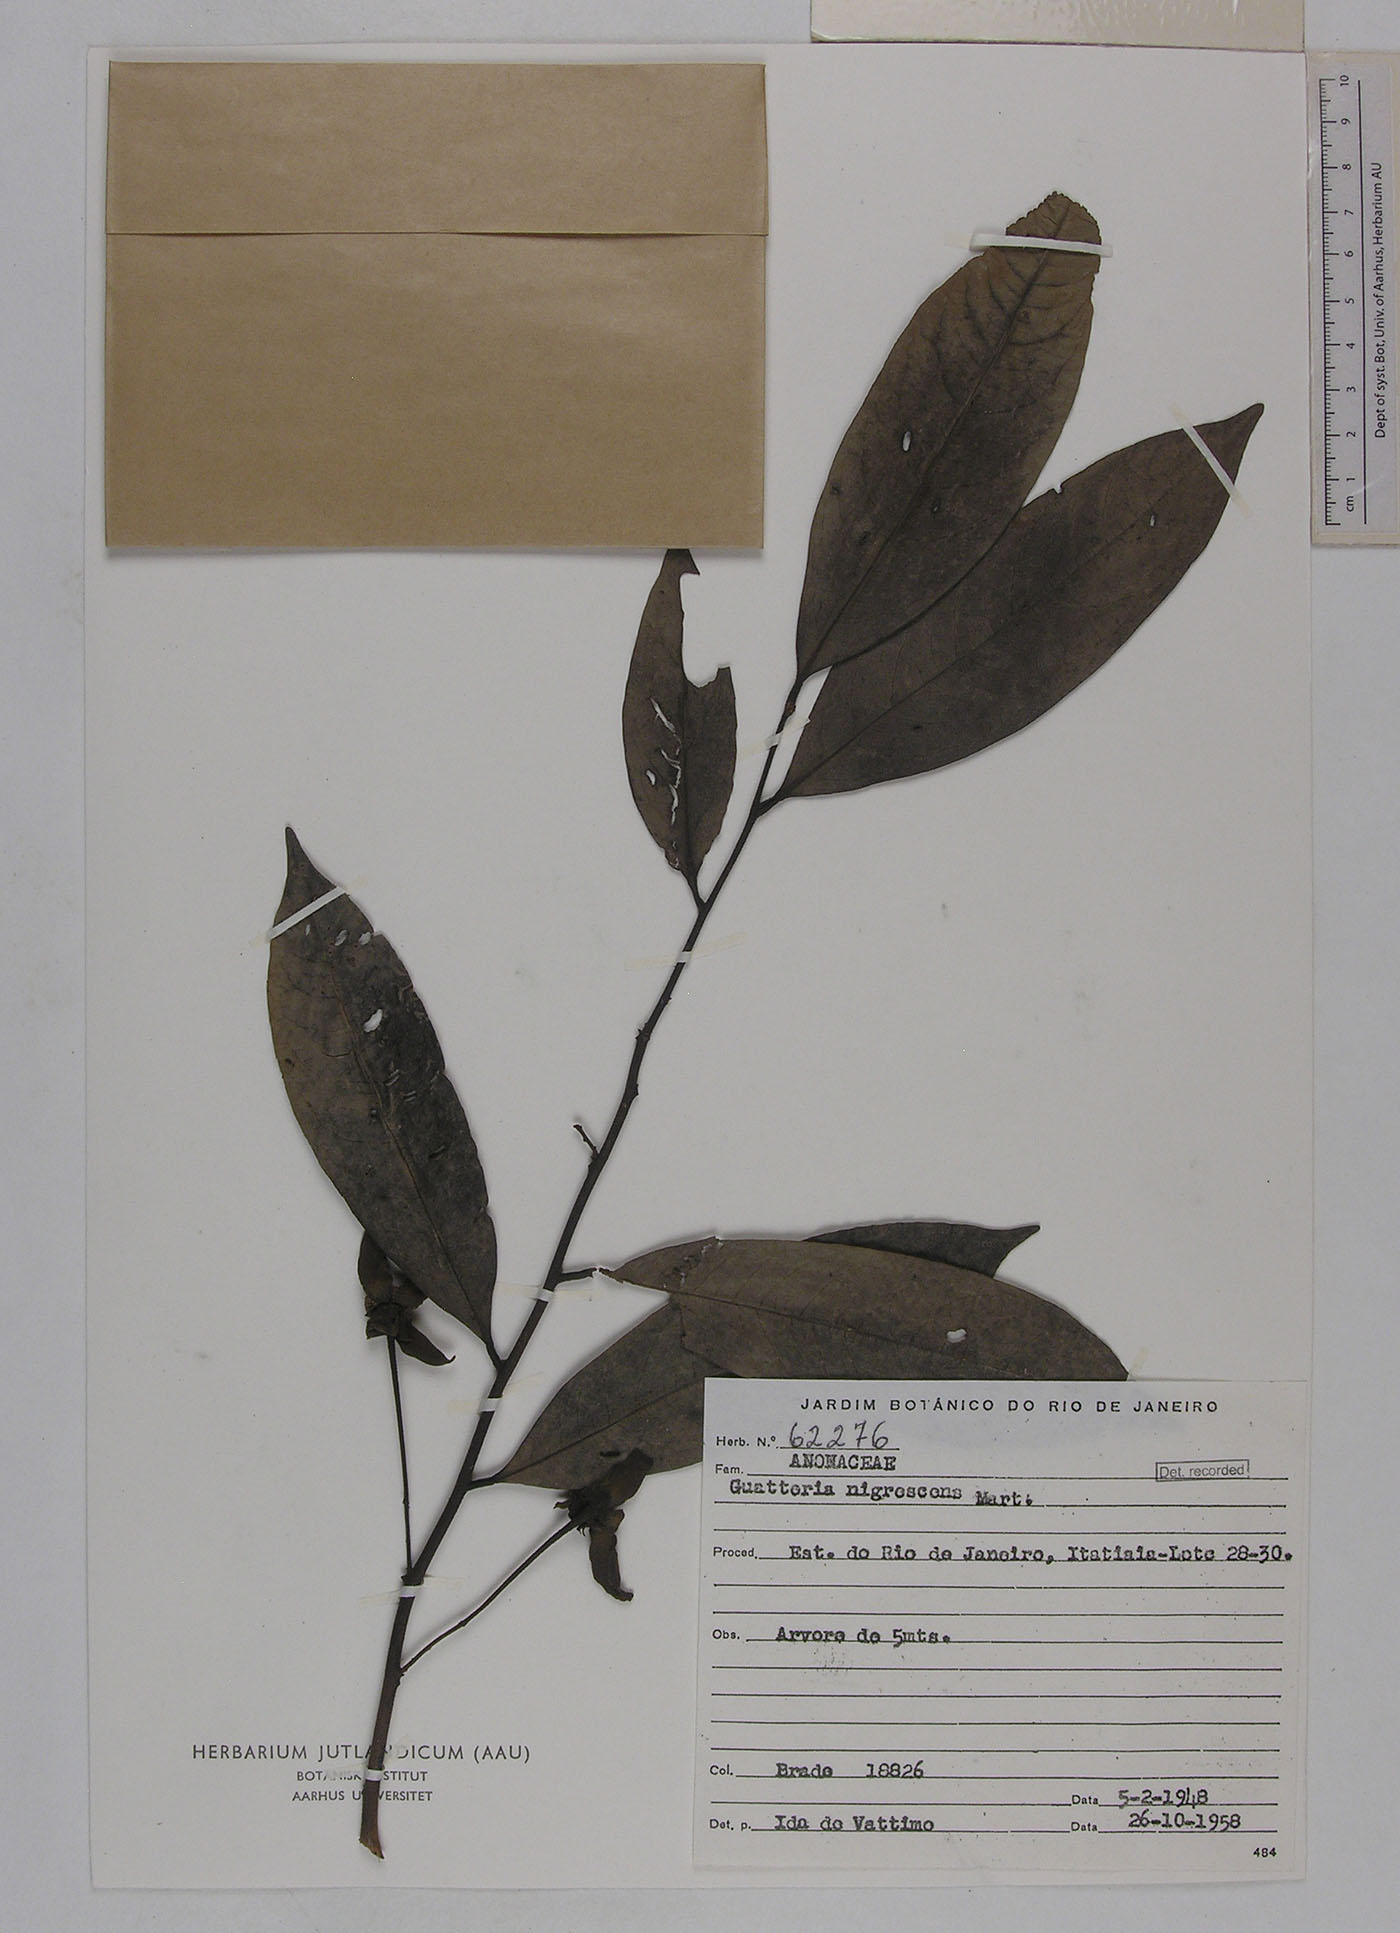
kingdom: Plantae
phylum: Tracheophyta
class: Magnoliopsida
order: Magnoliales
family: Annonaceae
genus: Guatteria
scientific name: Guatteria australis
